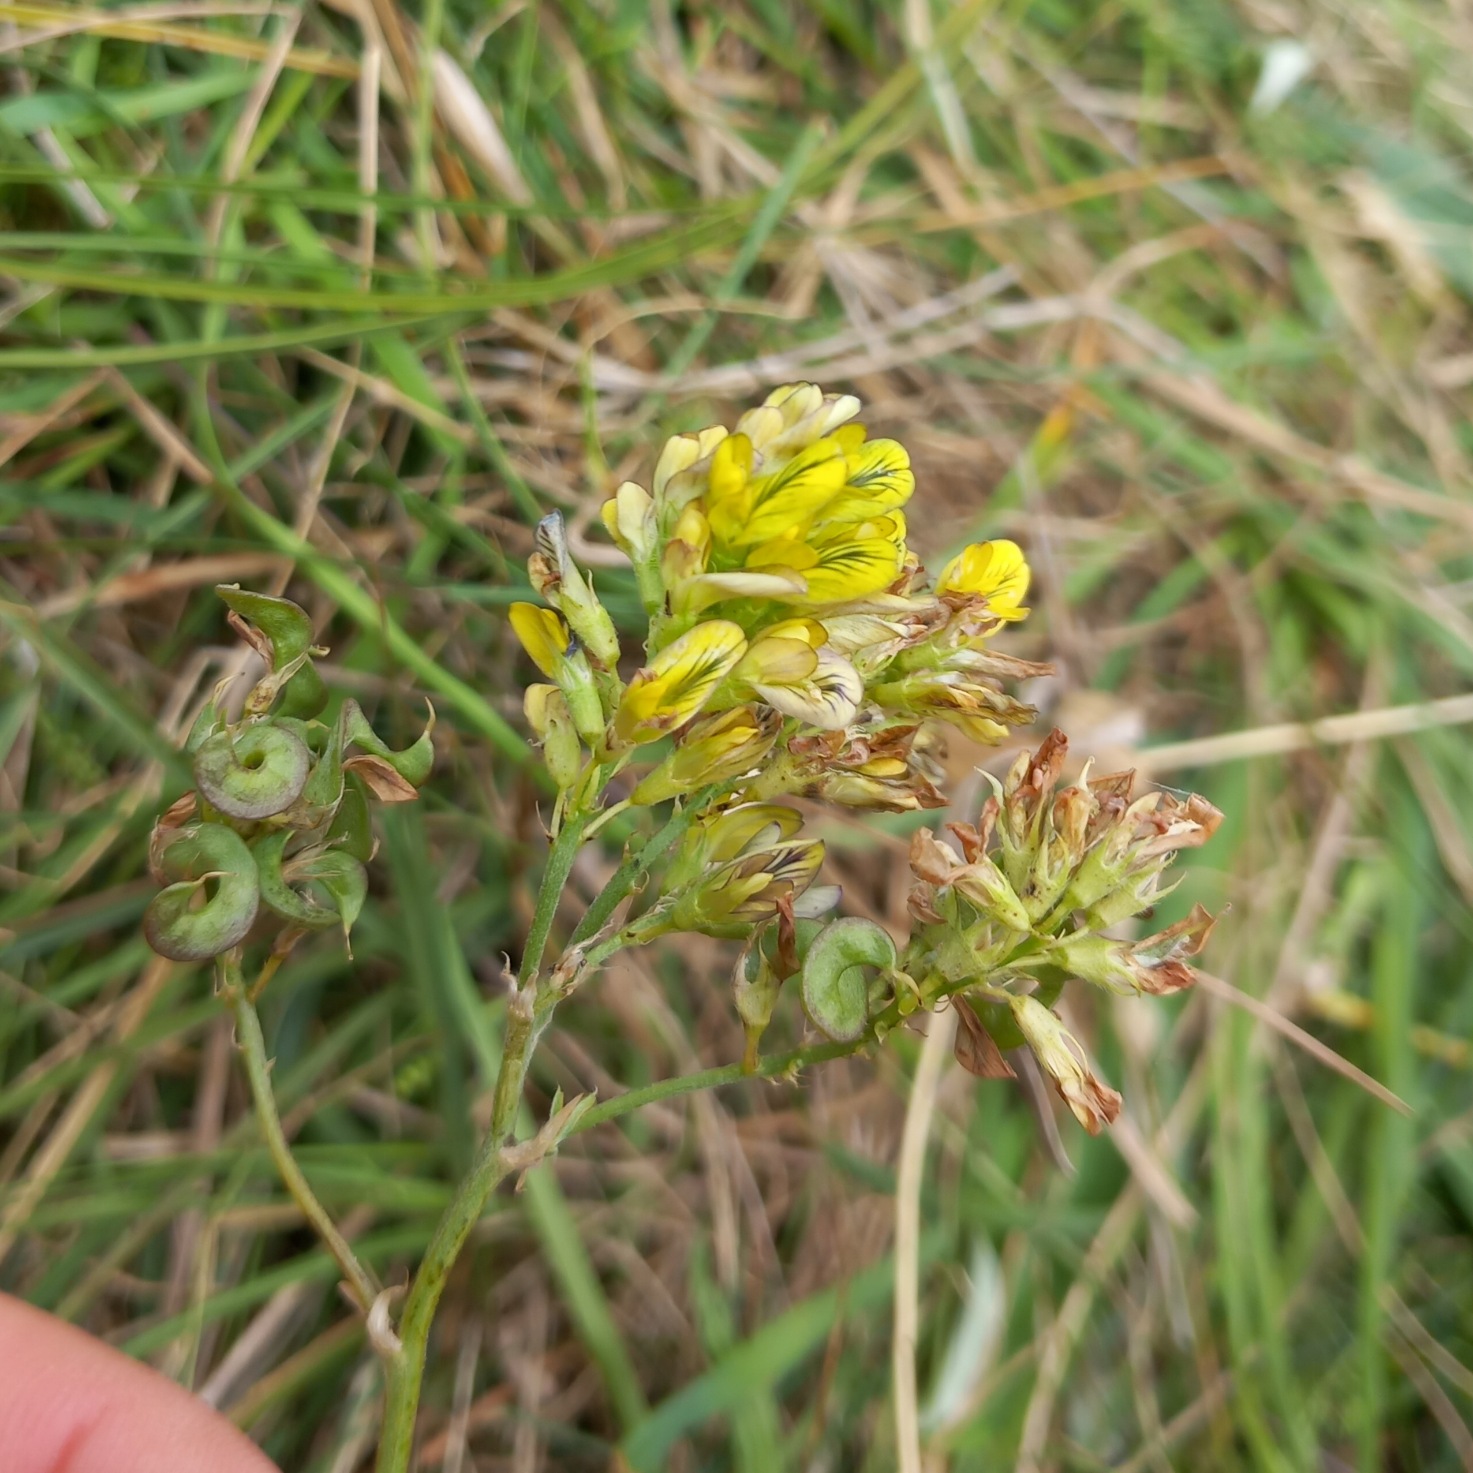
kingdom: Plantae
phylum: Tracheophyta
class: Magnoliopsida
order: Fabales
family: Fabaceae
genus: Medicago
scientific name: Medicago varia
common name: Sand-lucerne
